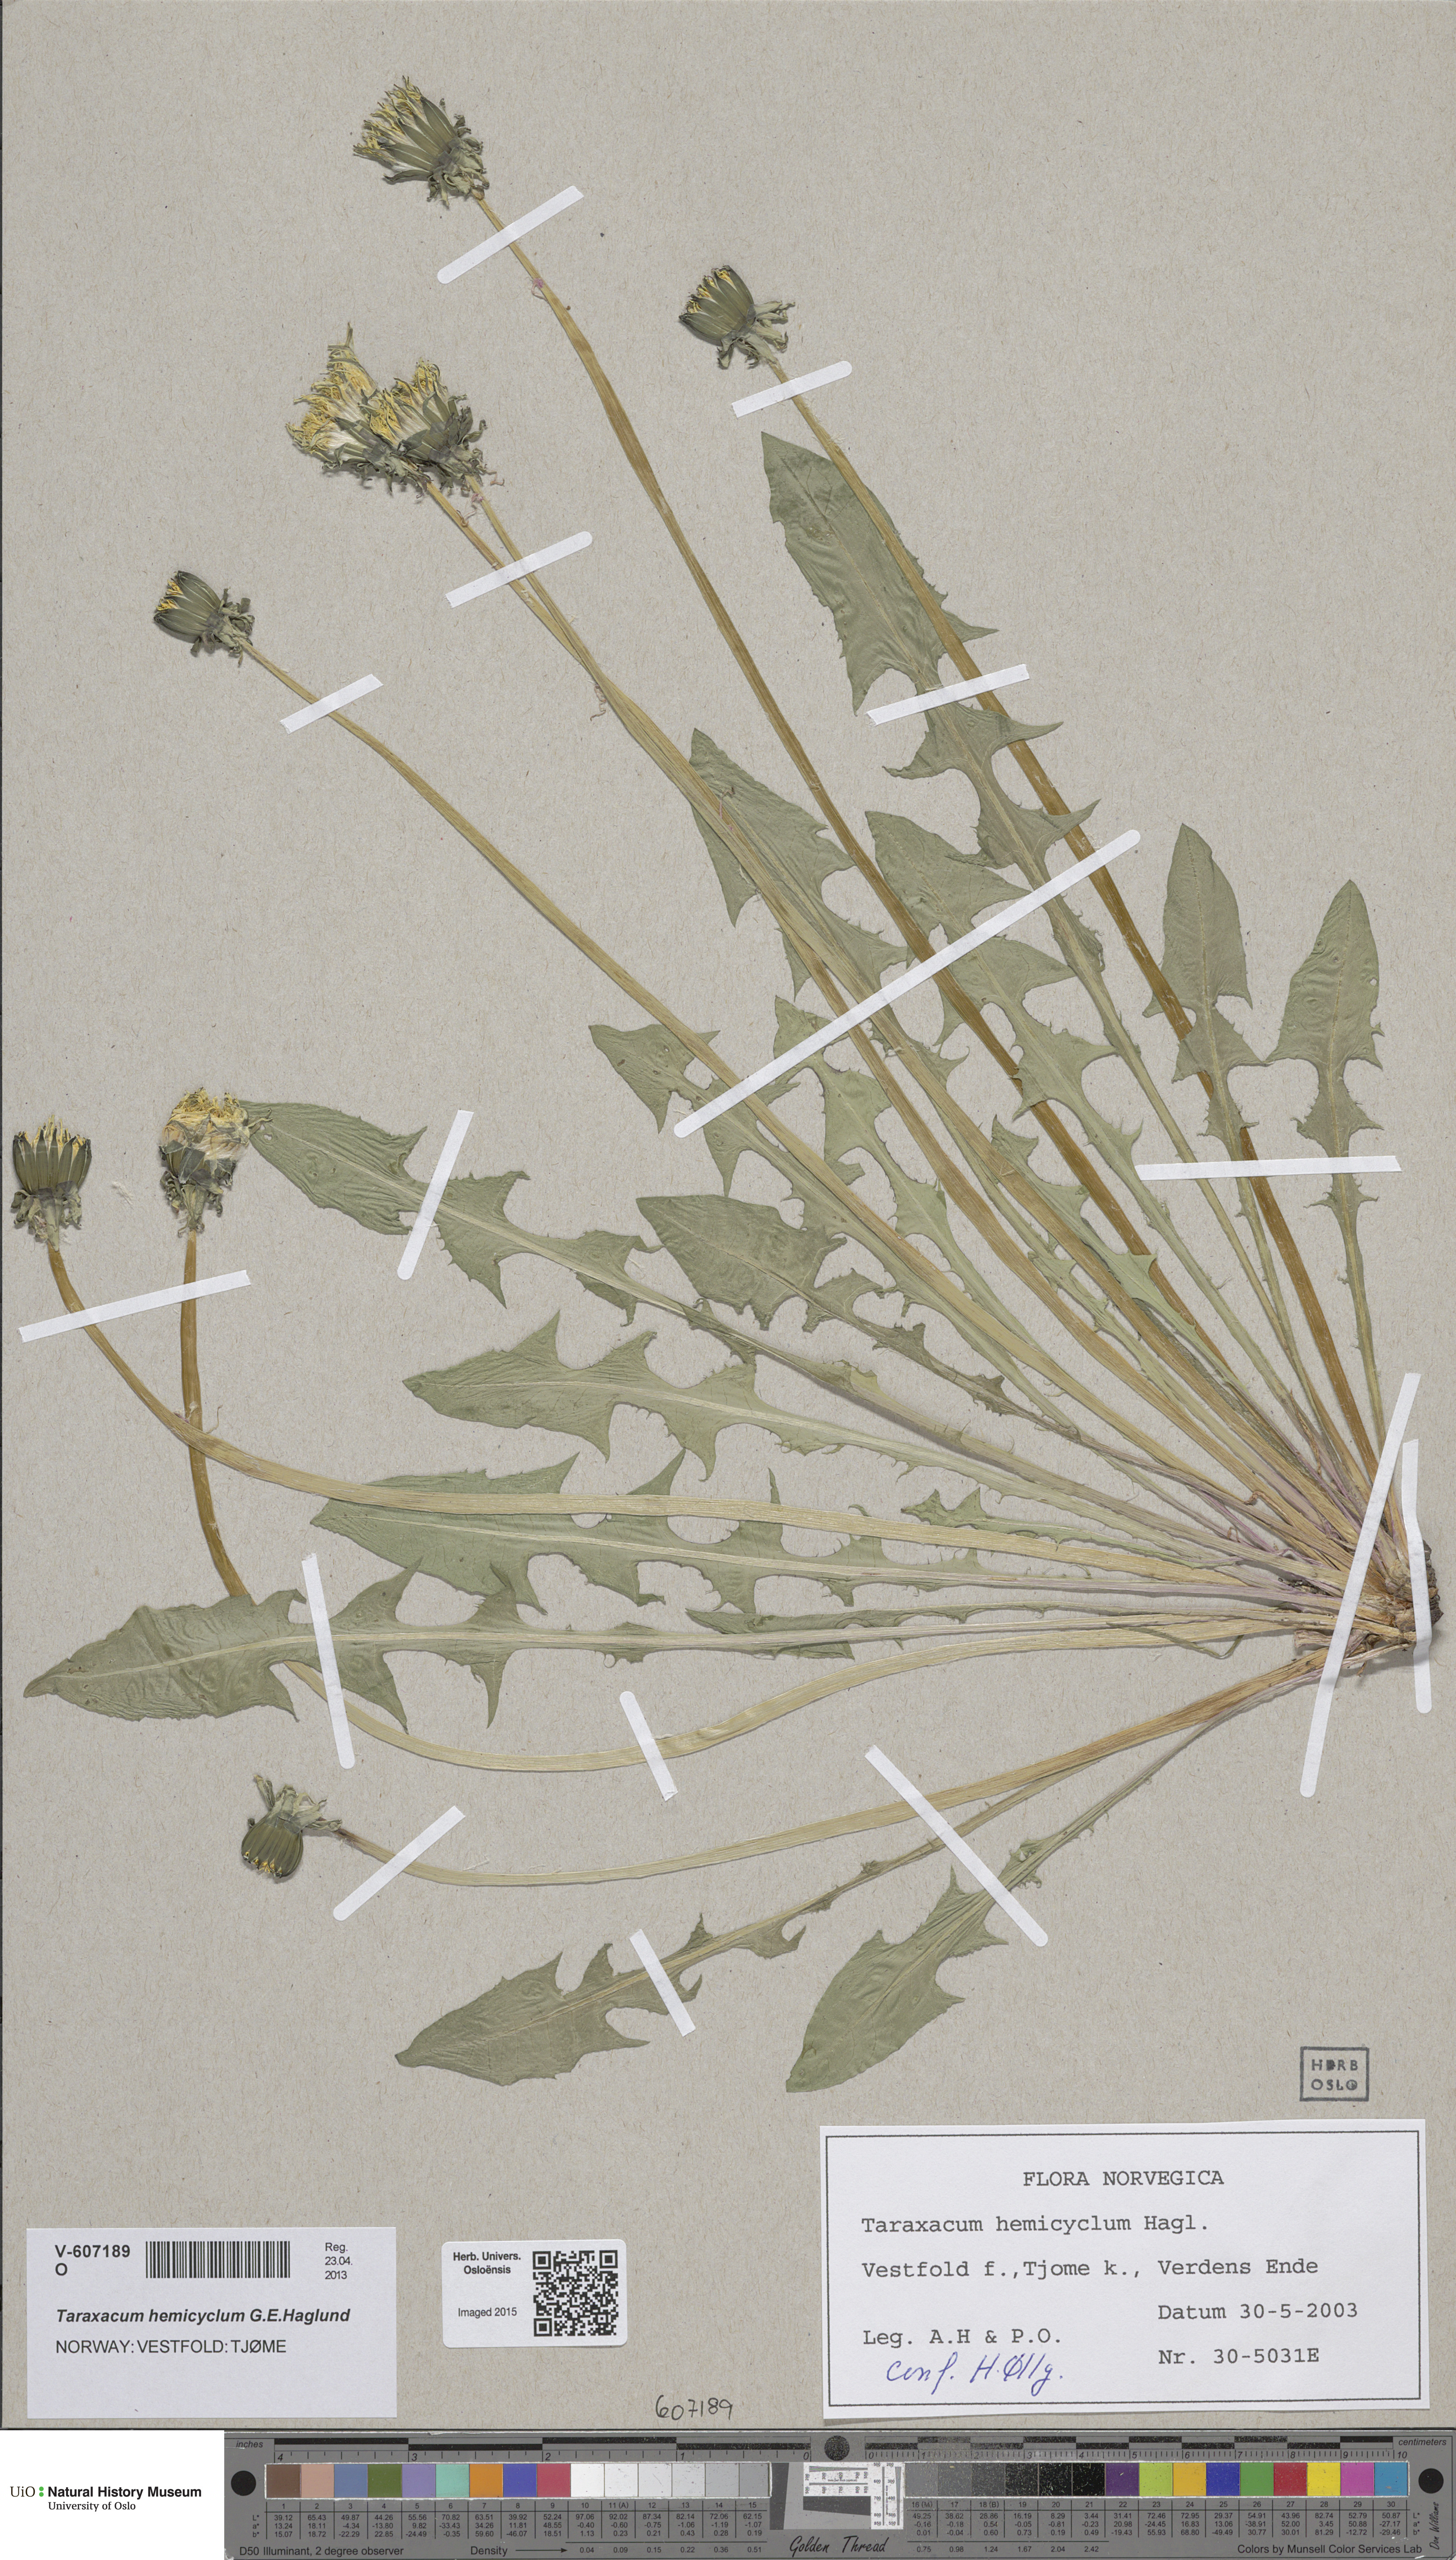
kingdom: Plantae
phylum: Tracheophyta
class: Magnoliopsida
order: Asterales
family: Asteraceae
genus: Taraxacum
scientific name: Taraxacum adiantifrons
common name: Pretty-leaved dandelion
